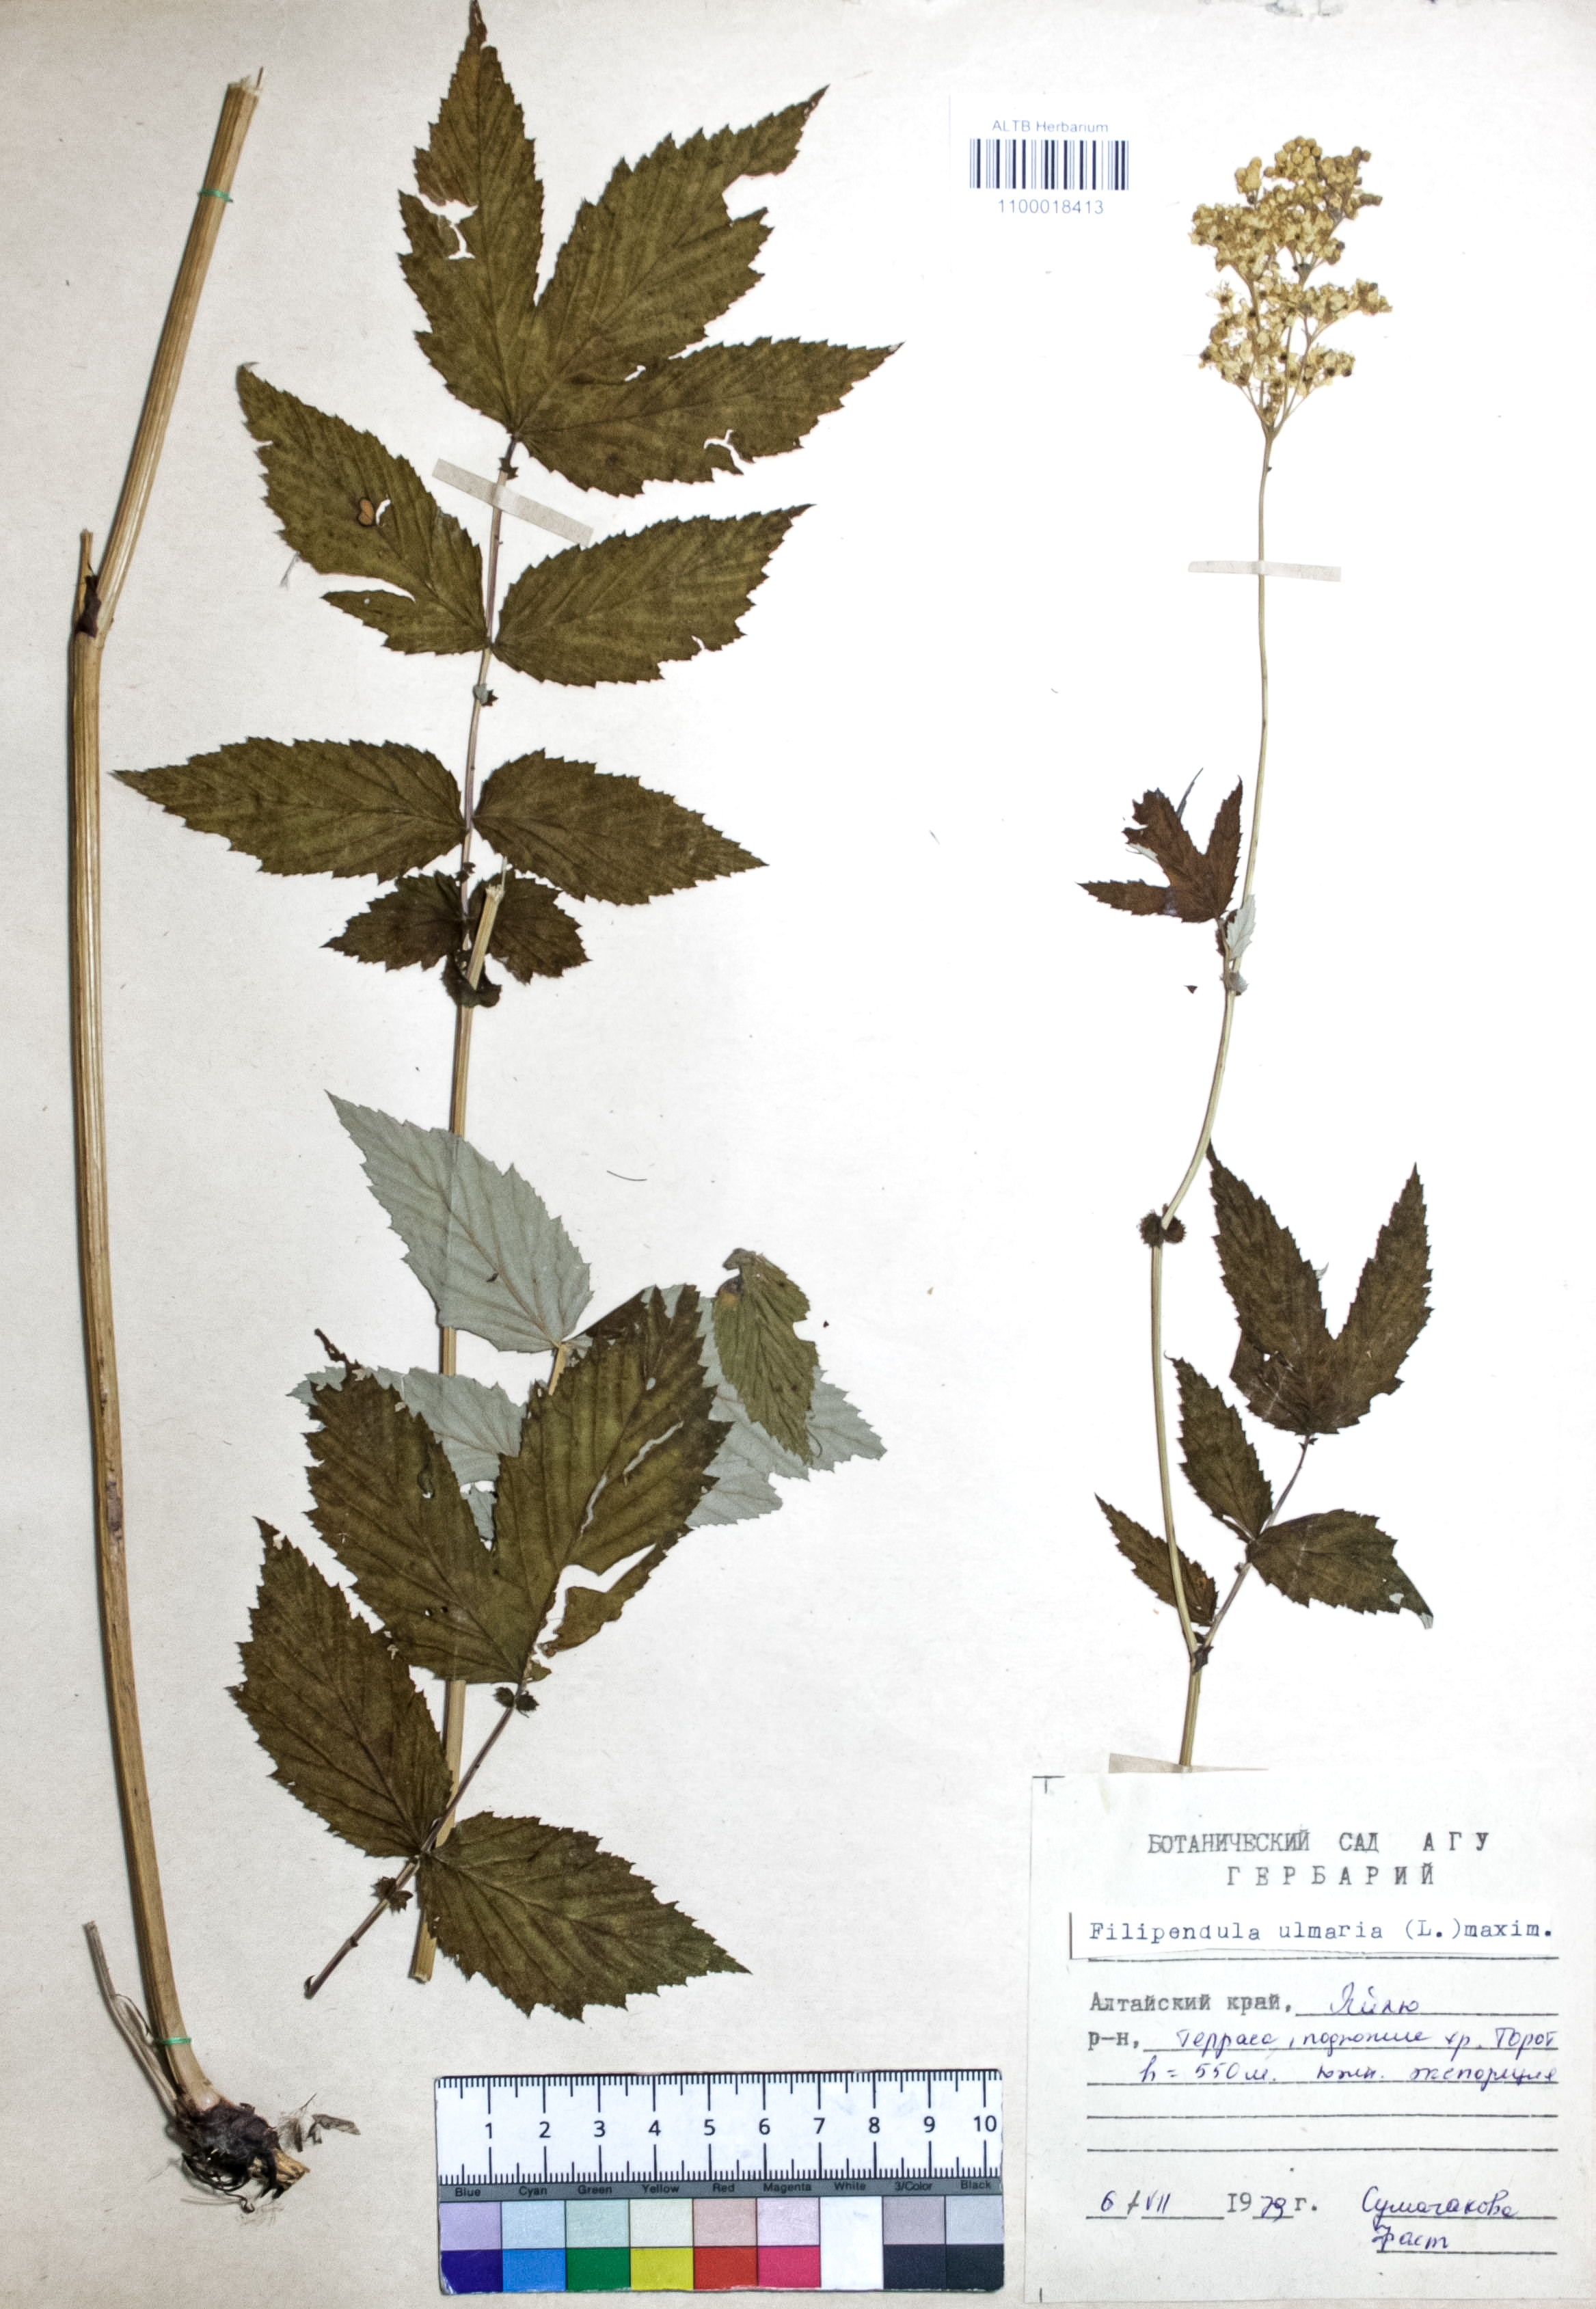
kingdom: Plantae
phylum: Tracheophyta
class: Magnoliopsida
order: Rosales
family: Rosaceae
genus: Filipendula
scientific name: Filipendula ulmaria
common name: Meadowsweet
